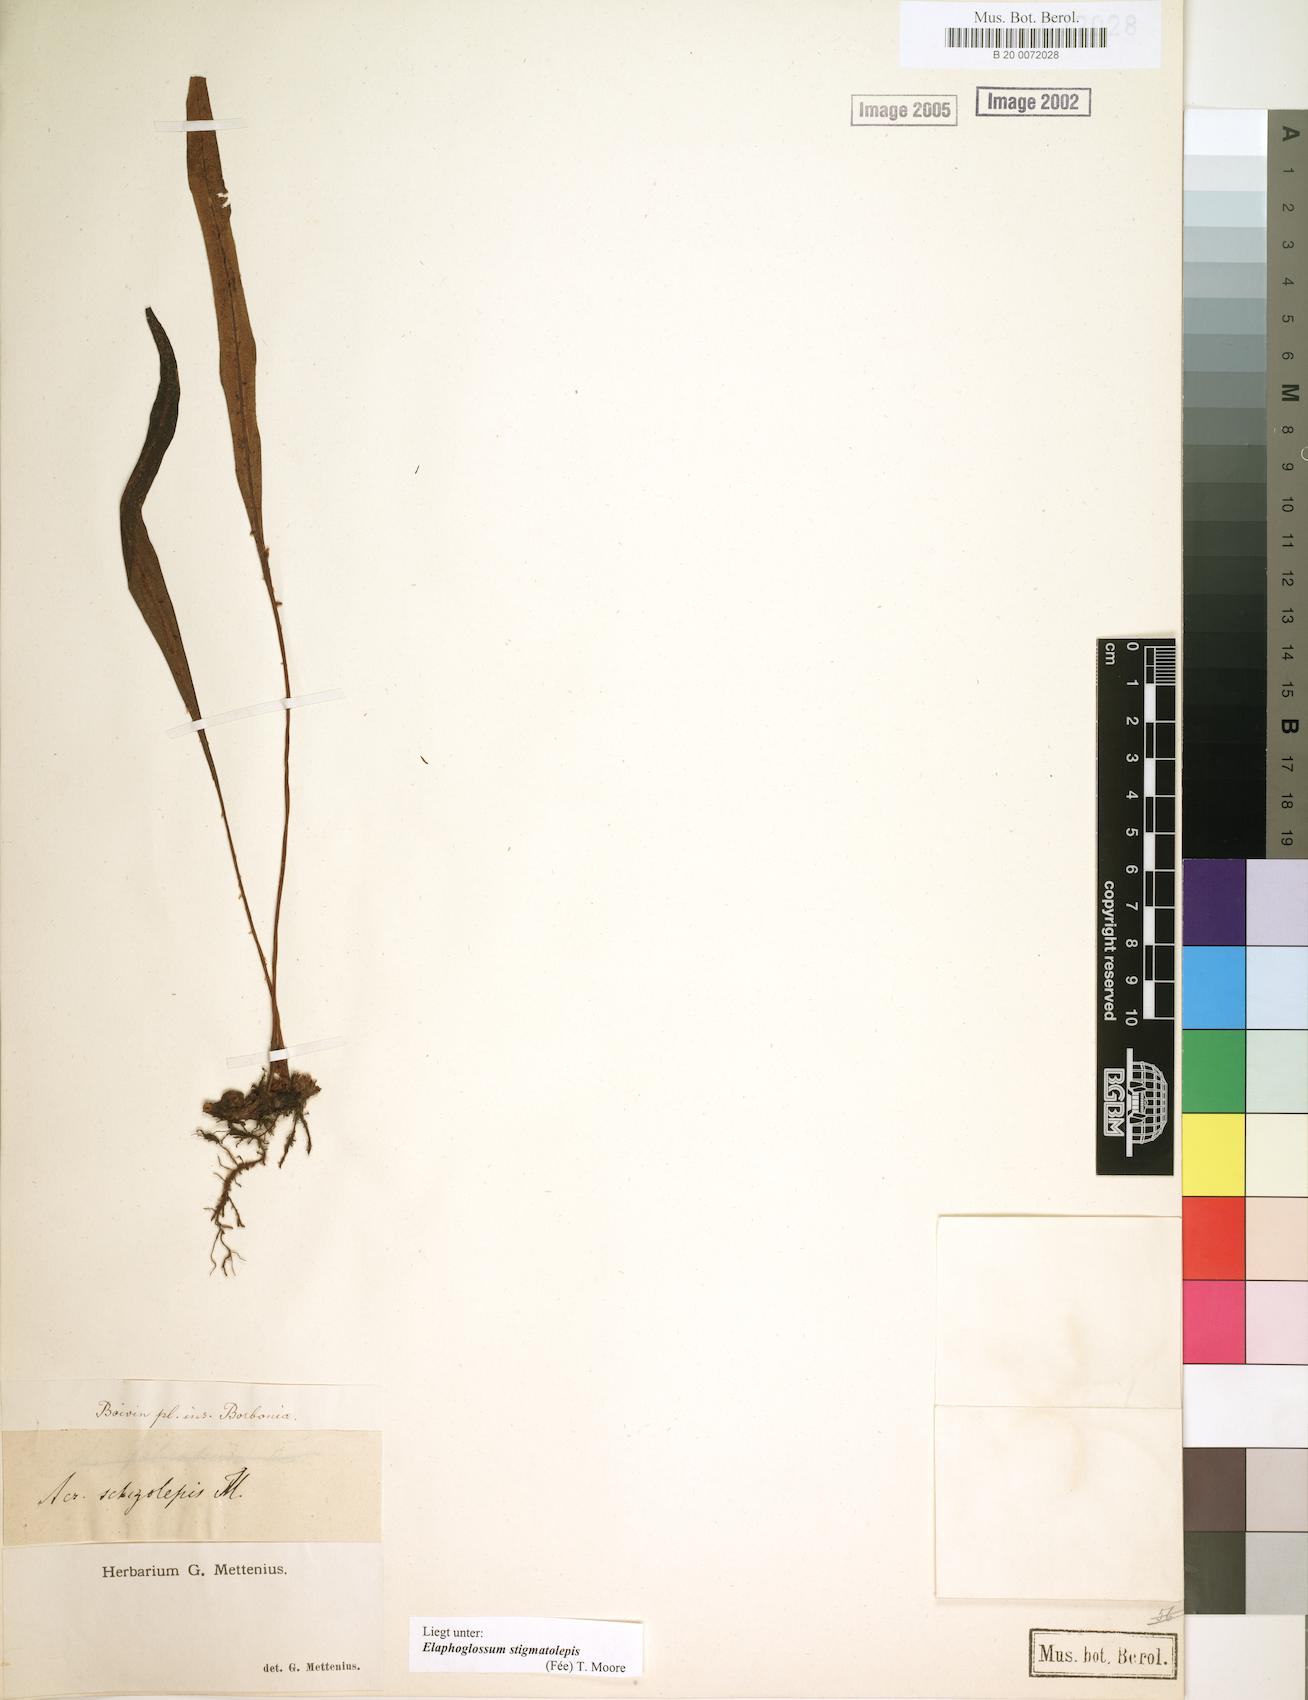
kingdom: Plantae
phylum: Tracheophyta
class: Polypodiopsida
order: Polypodiales
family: Dryopteridaceae
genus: Elaphoglossum
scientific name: Elaphoglossum stigmatolepis
